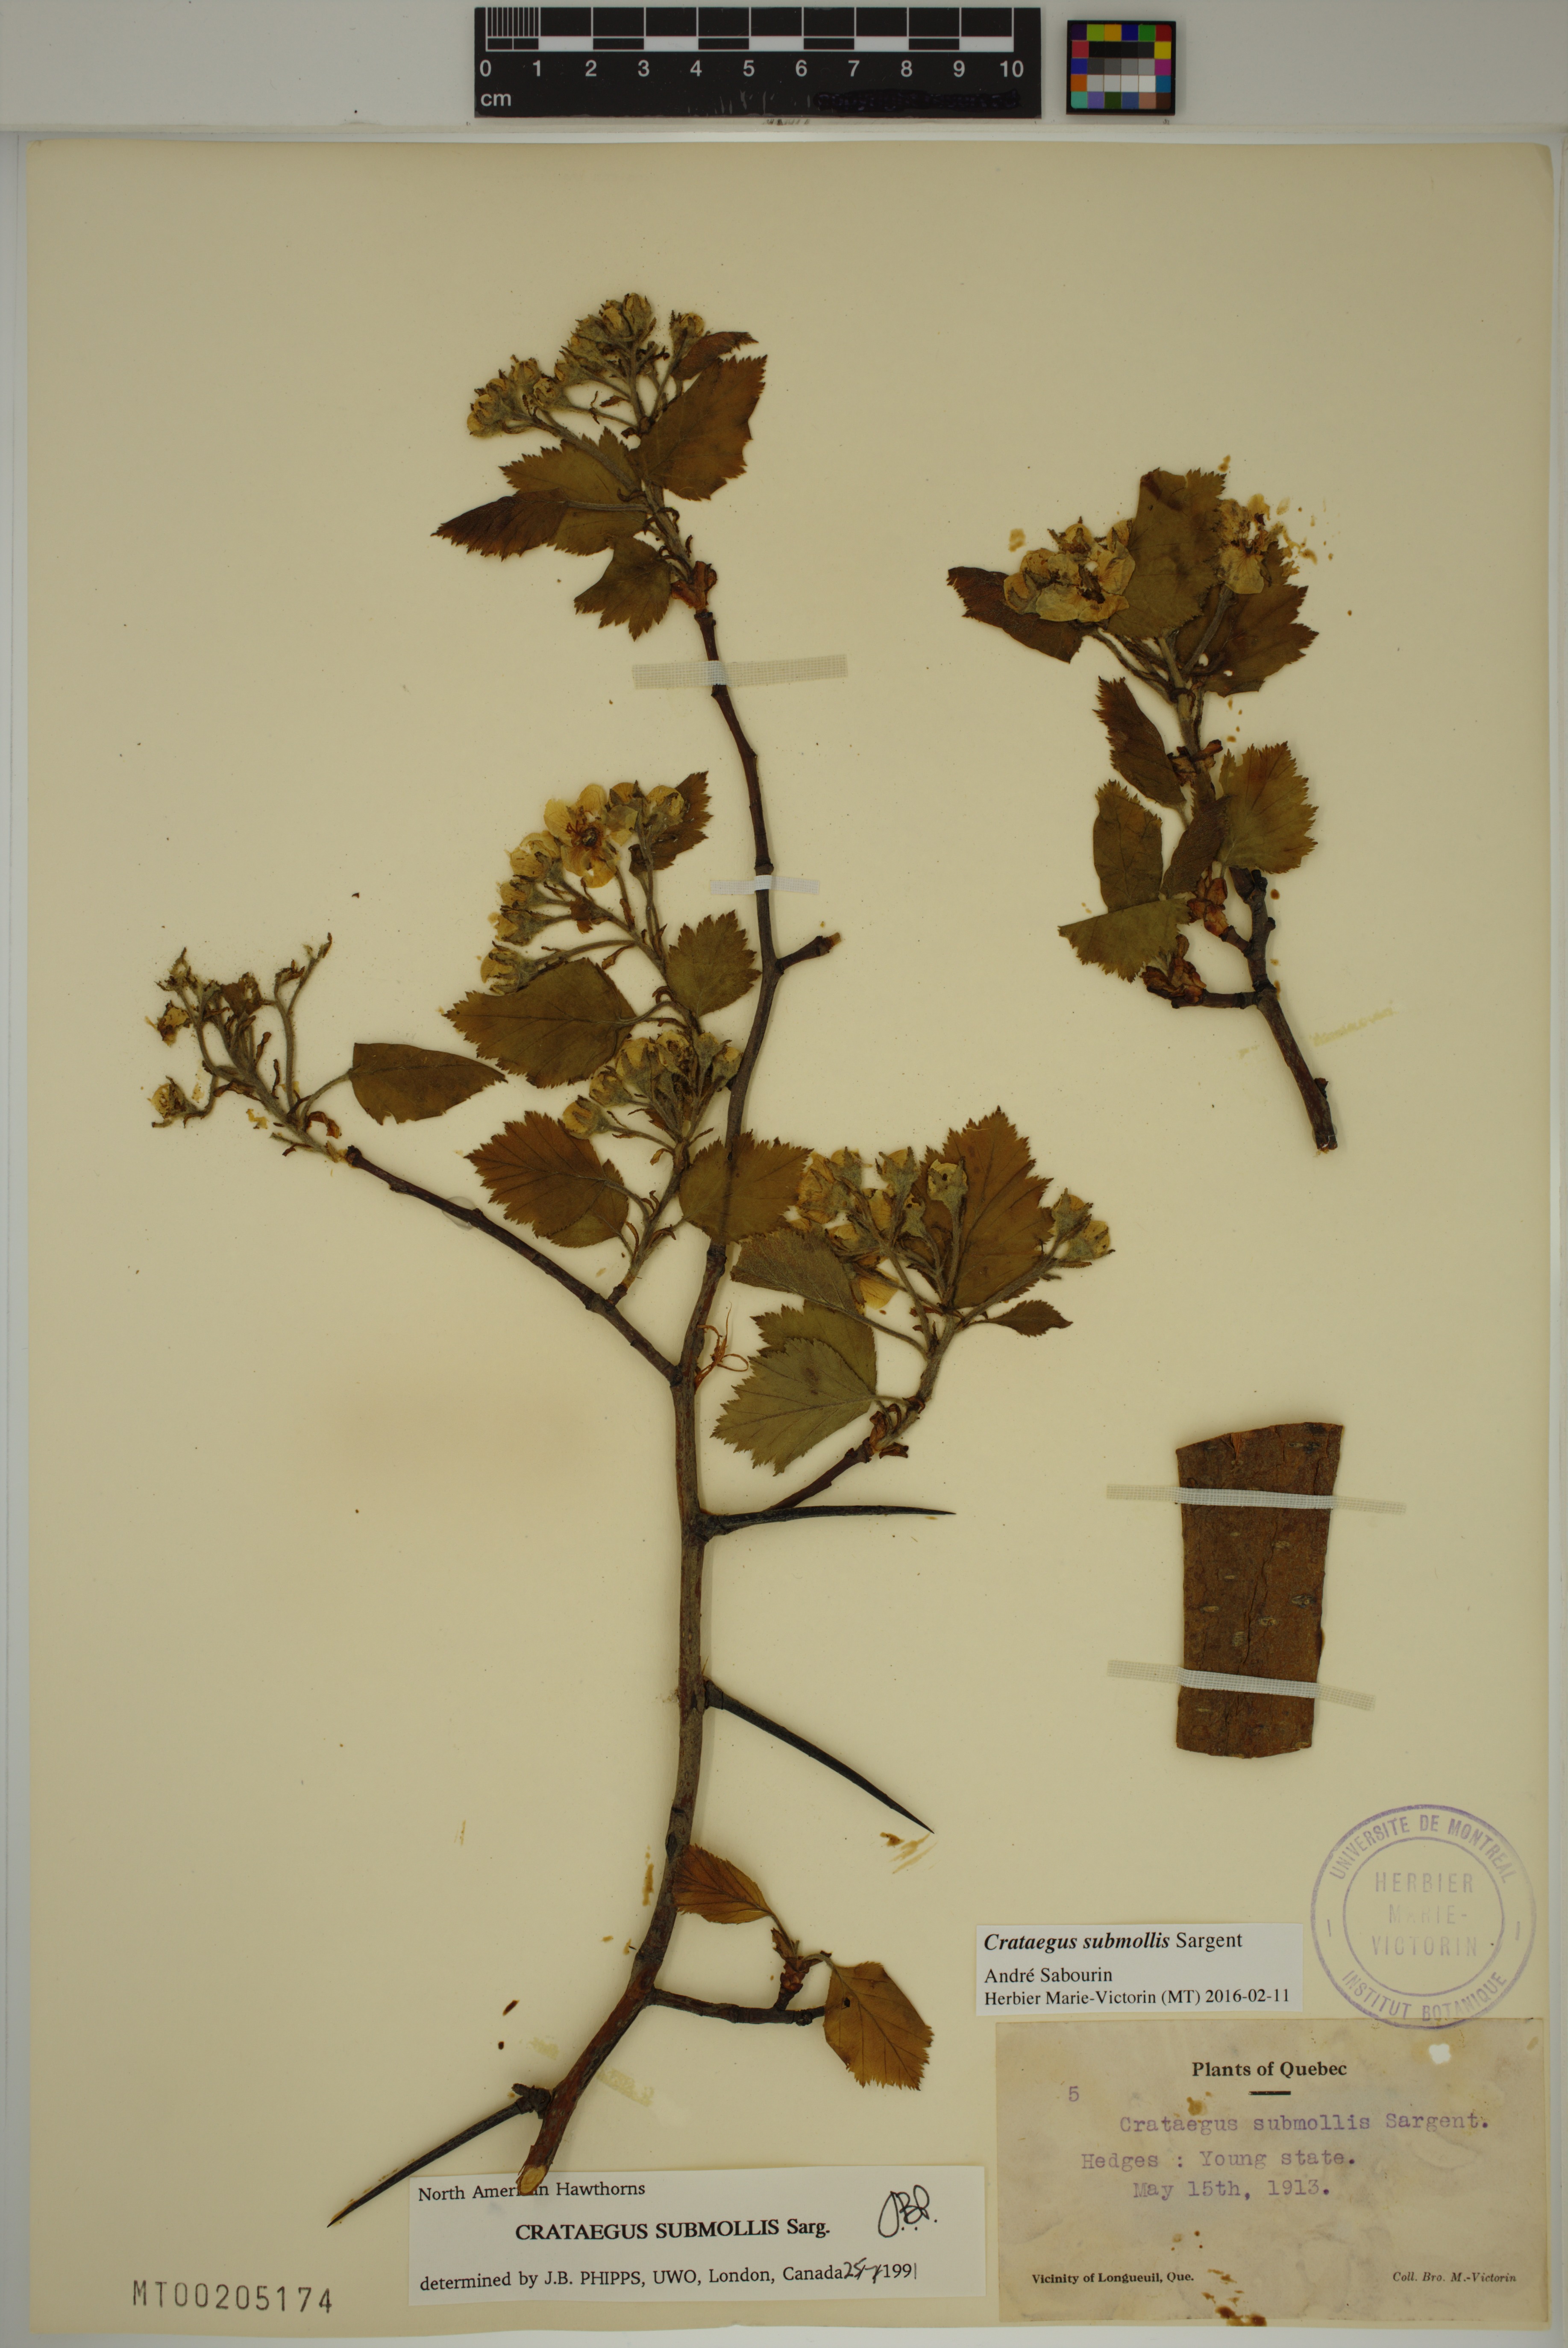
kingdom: Plantae
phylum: Tracheophyta
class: Magnoliopsida
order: Rosales
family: Rosaceae
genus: Crataegus
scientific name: Crataegus submollis
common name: Hairy cockspurthorn
